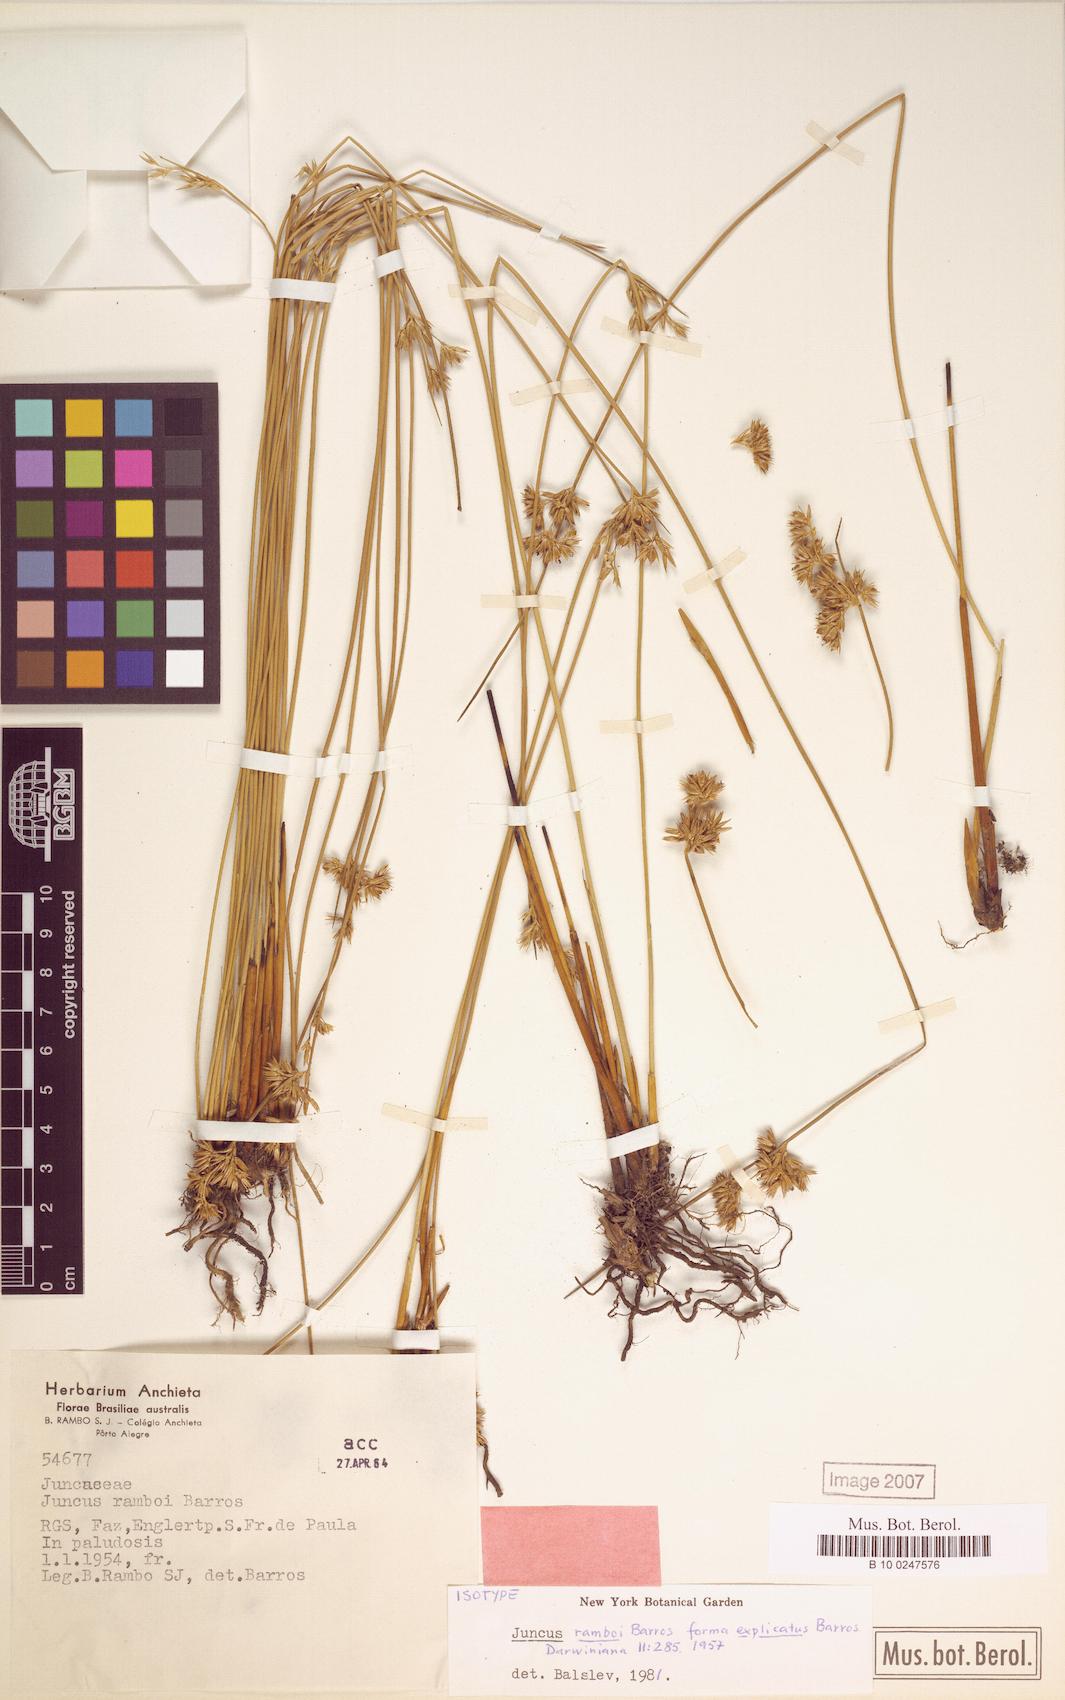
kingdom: Plantae
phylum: Tracheophyta
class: Liliopsida
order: Poales
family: Juncaceae
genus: Juncus
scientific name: Juncus ramboi
